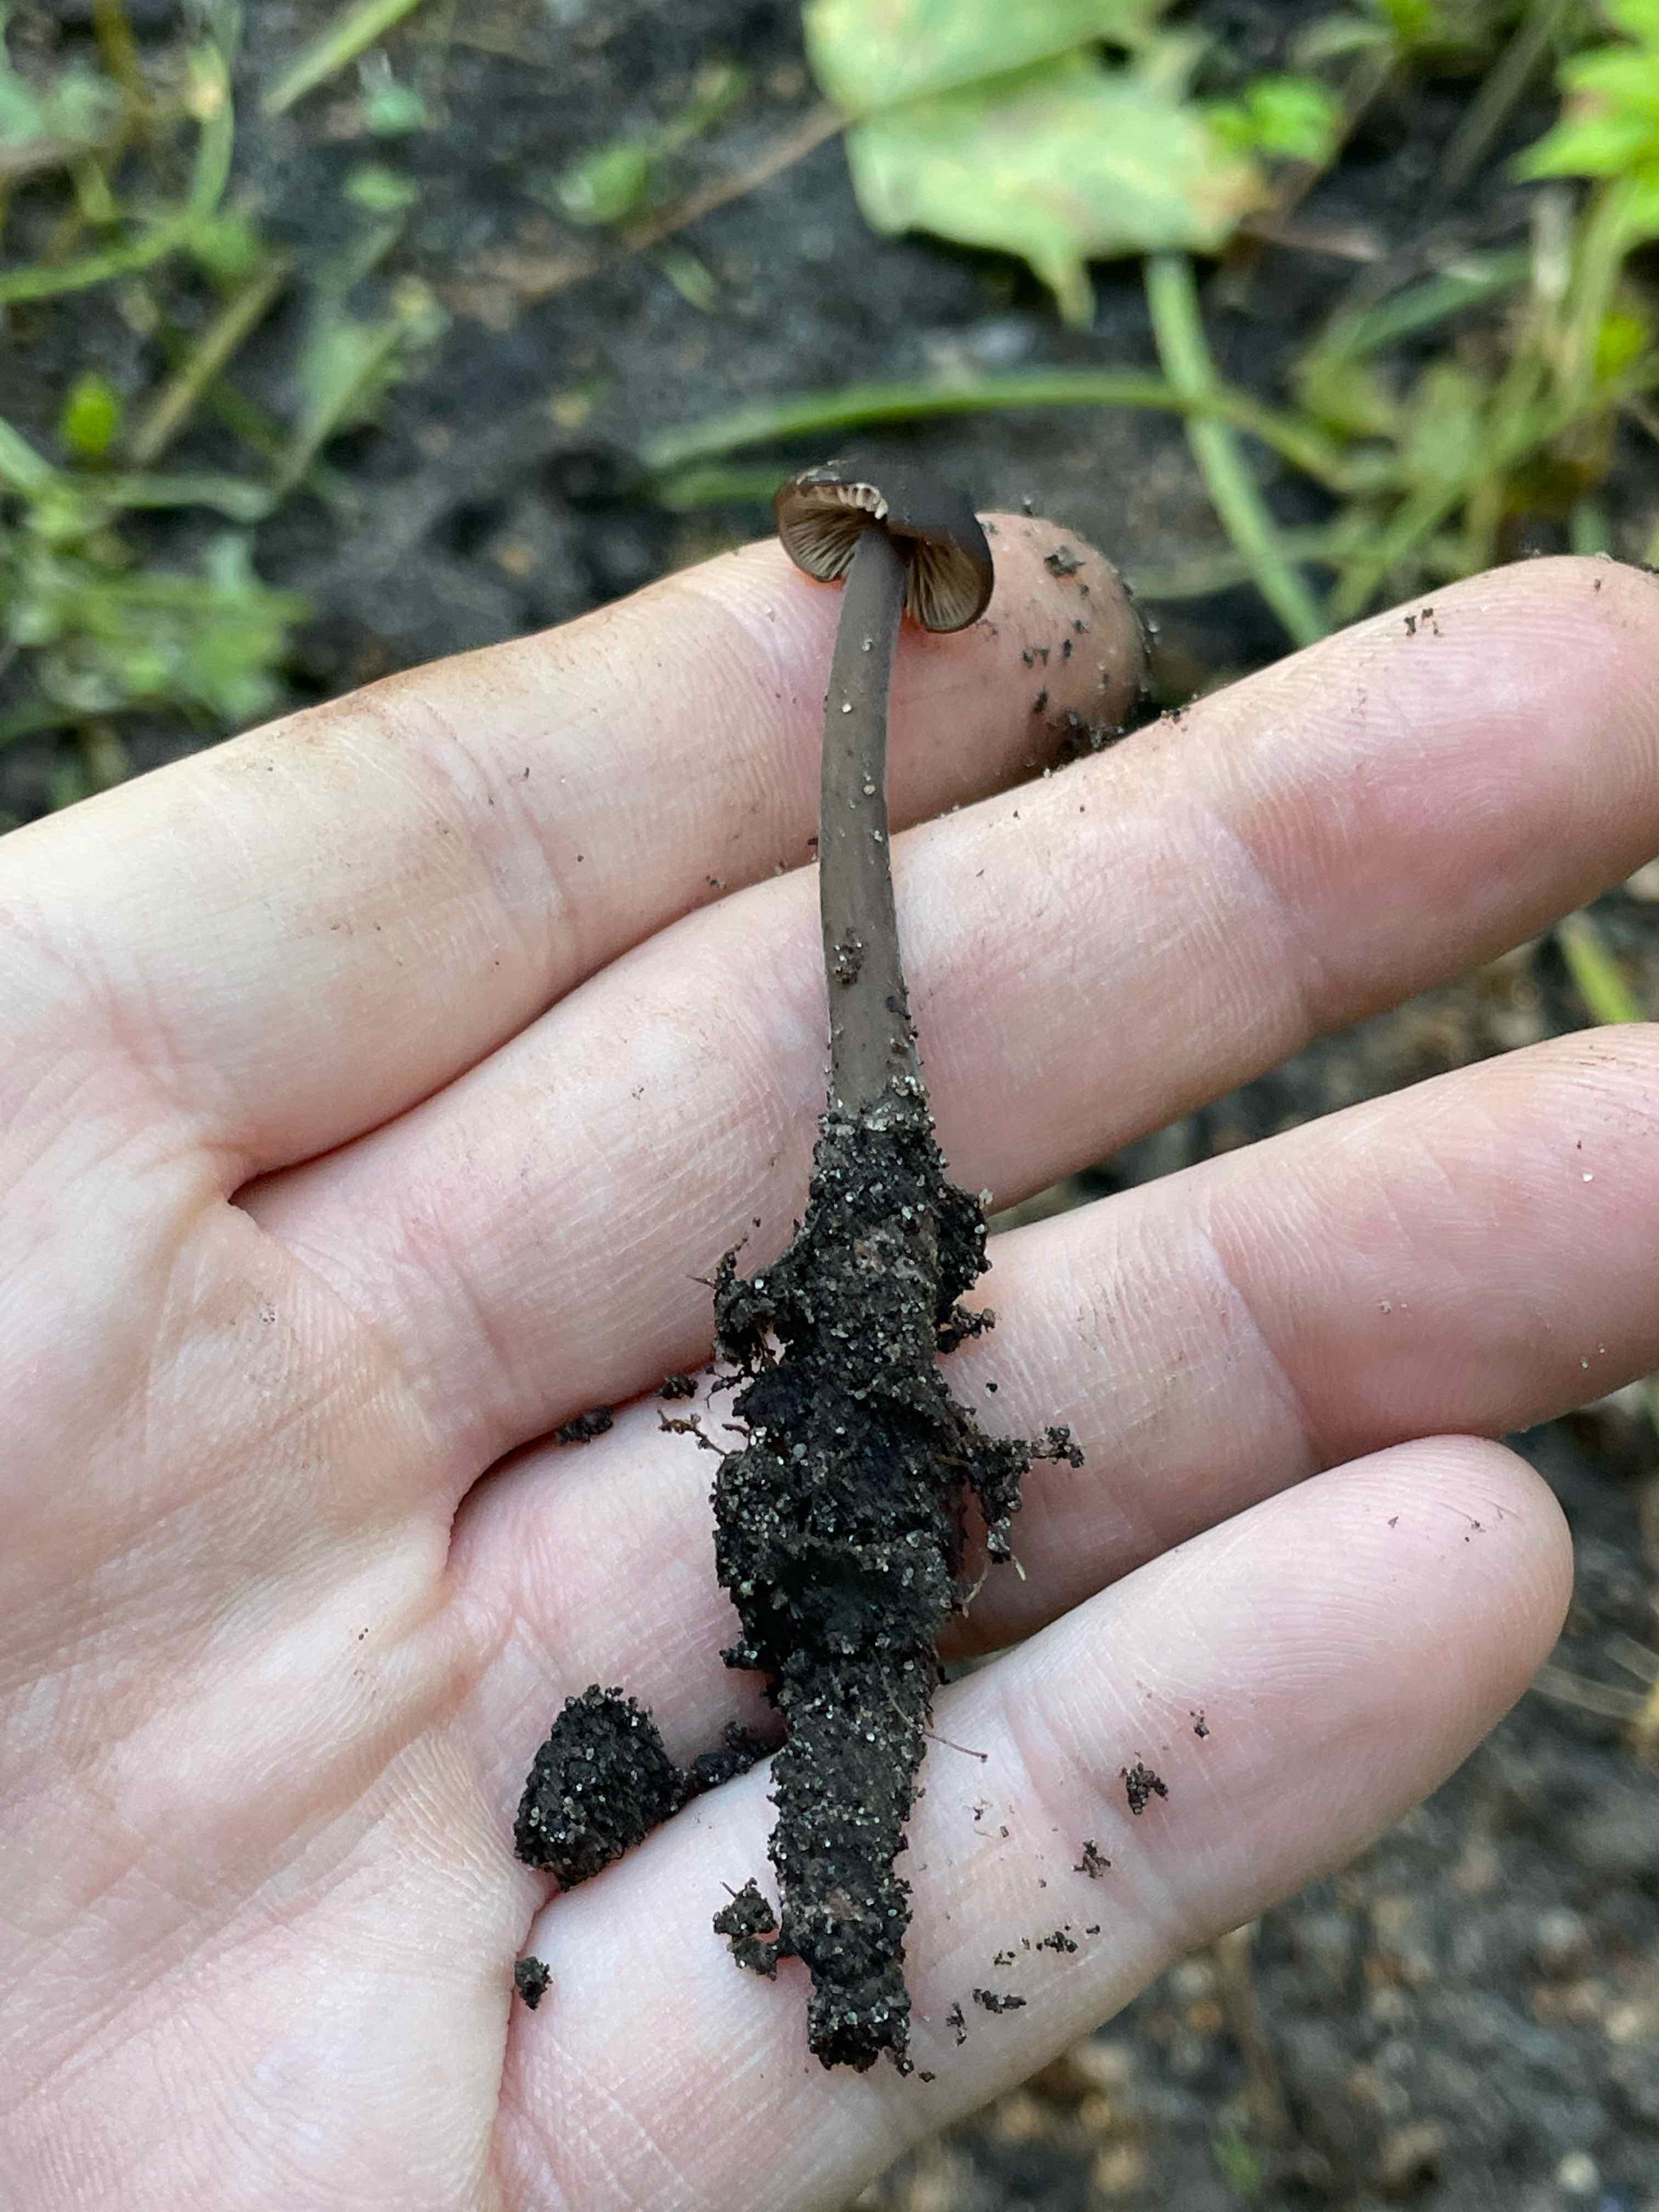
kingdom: Fungi
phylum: Basidiomycota
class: Agaricomycetes
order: Agaricales
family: Omphalotaceae
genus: Mycetinis
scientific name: Mycetinis alliaceus
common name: stor løghat
